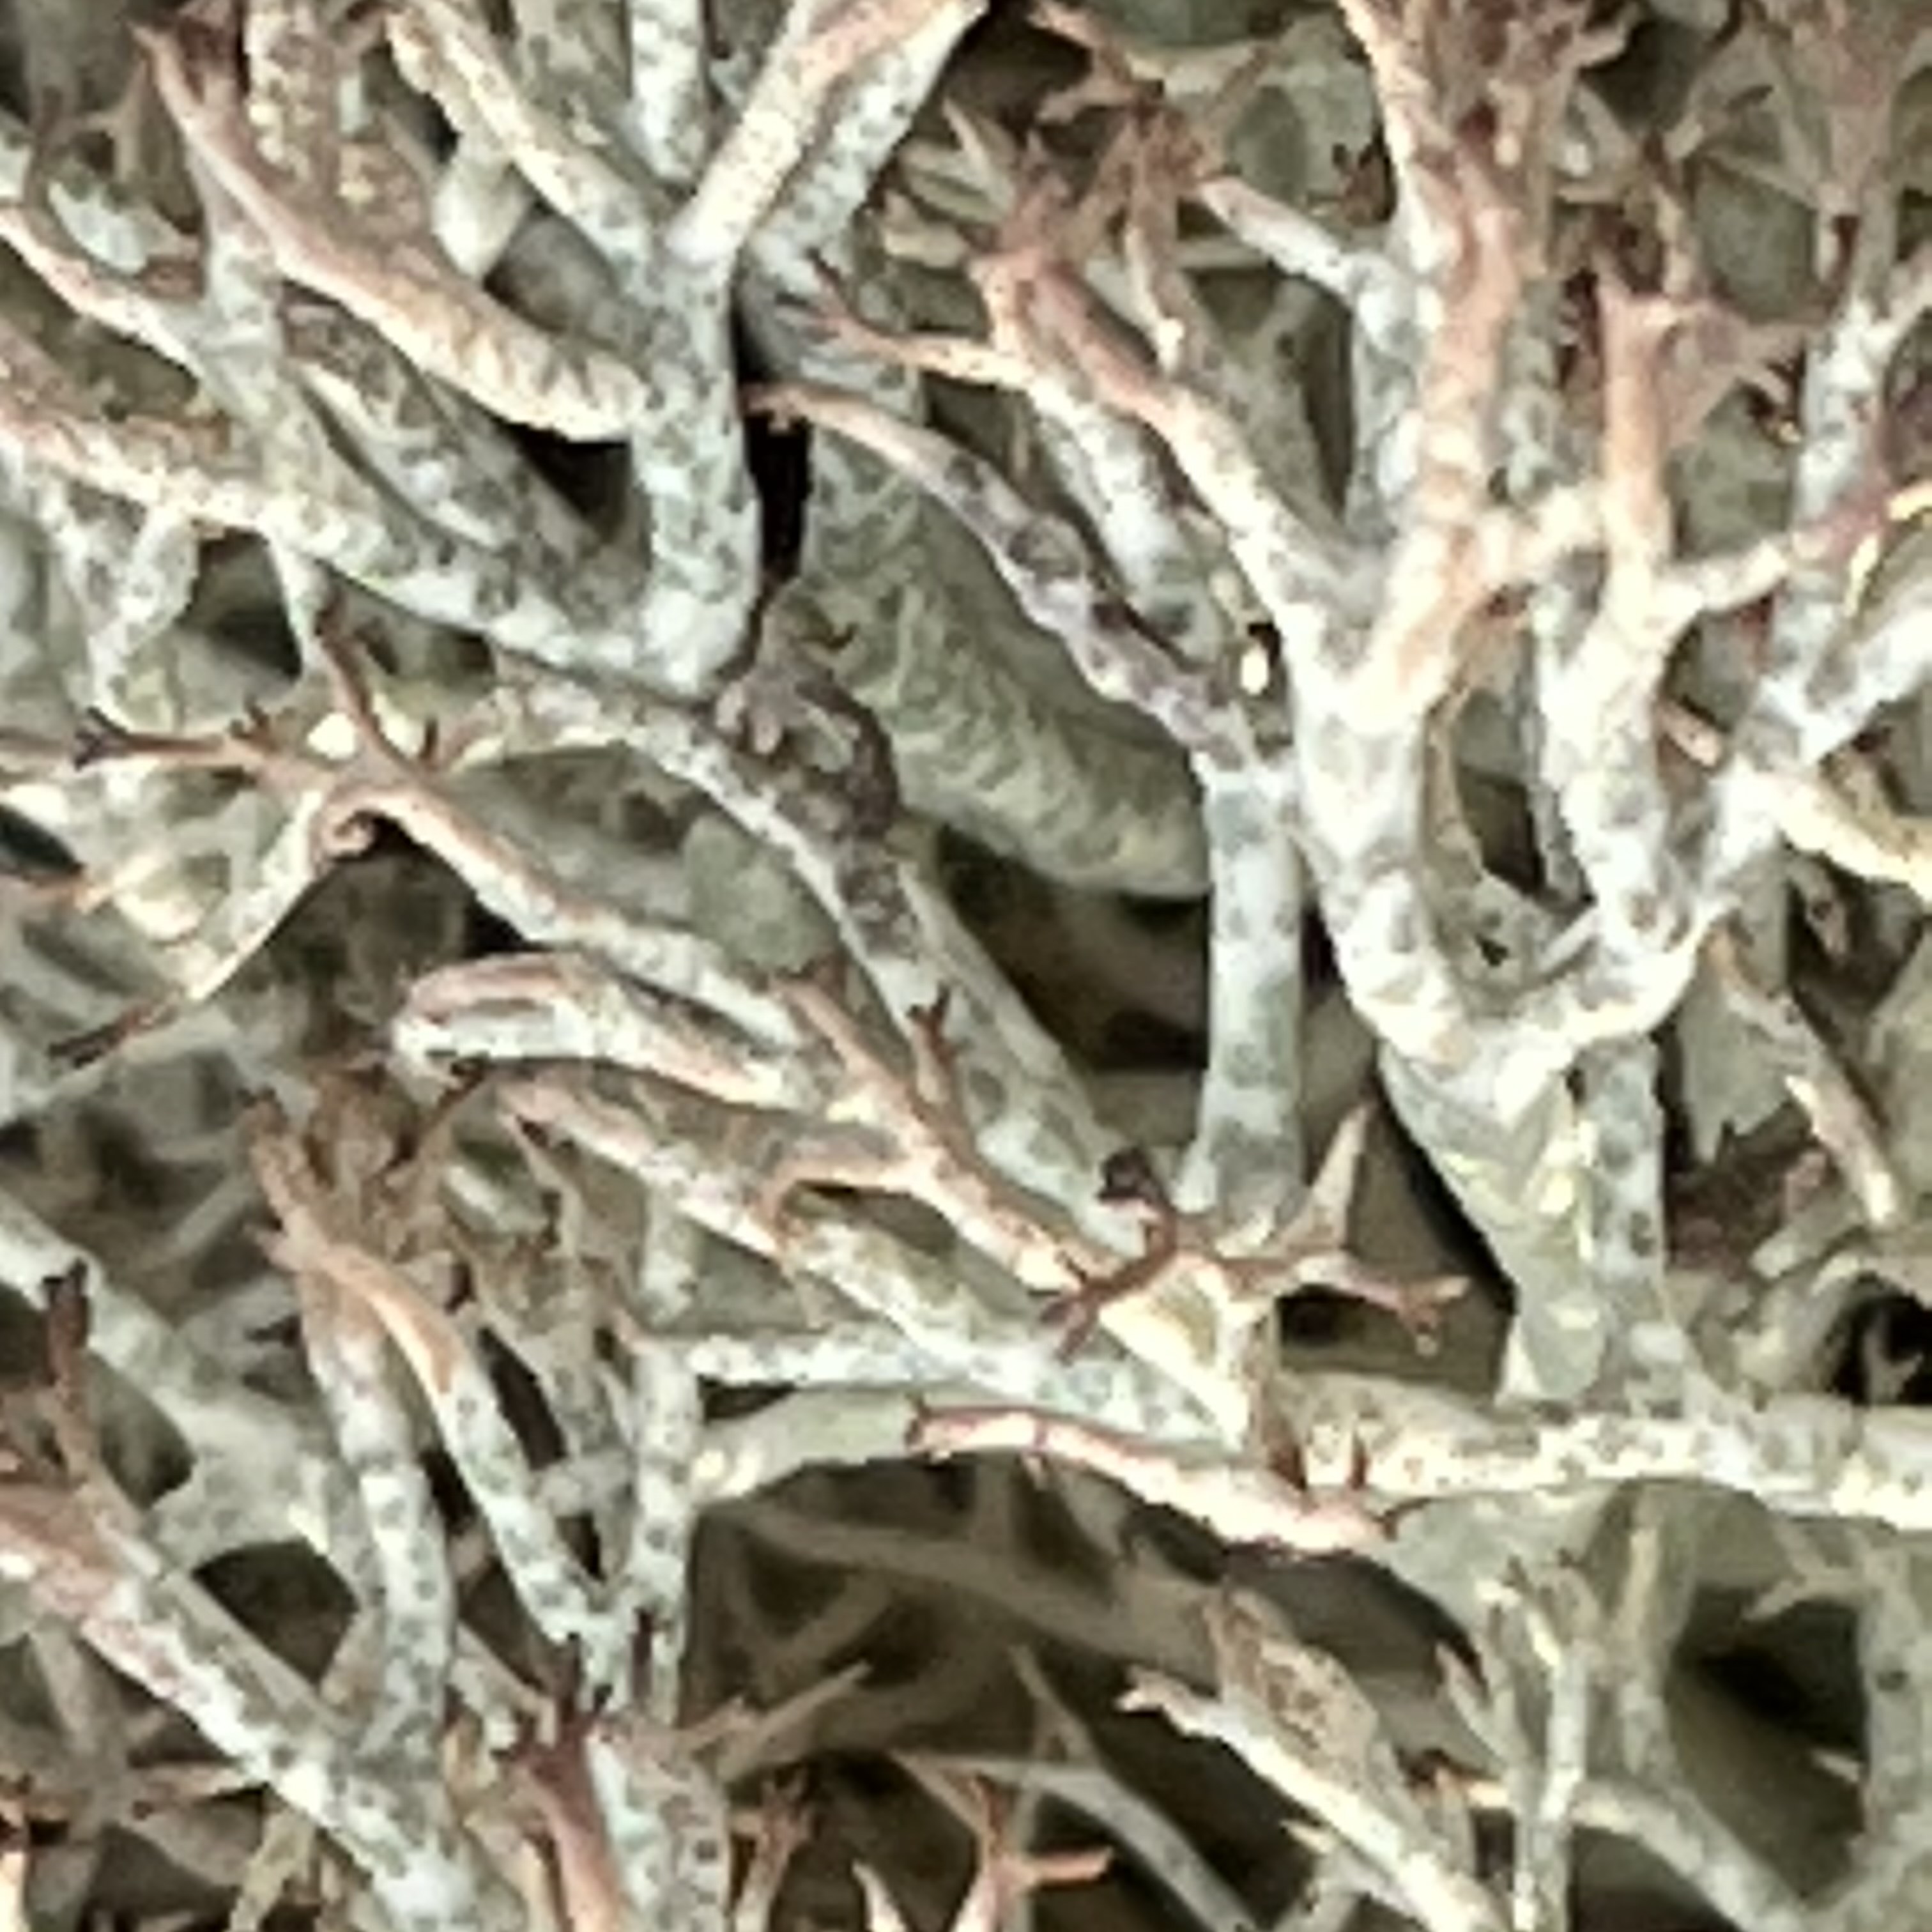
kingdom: Fungi
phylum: Ascomycota
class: Lecanoromycetes
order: Lecanorales
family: Cladoniaceae
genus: Cladonia
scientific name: Cladonia rangiformis
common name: spættet bægerlav
